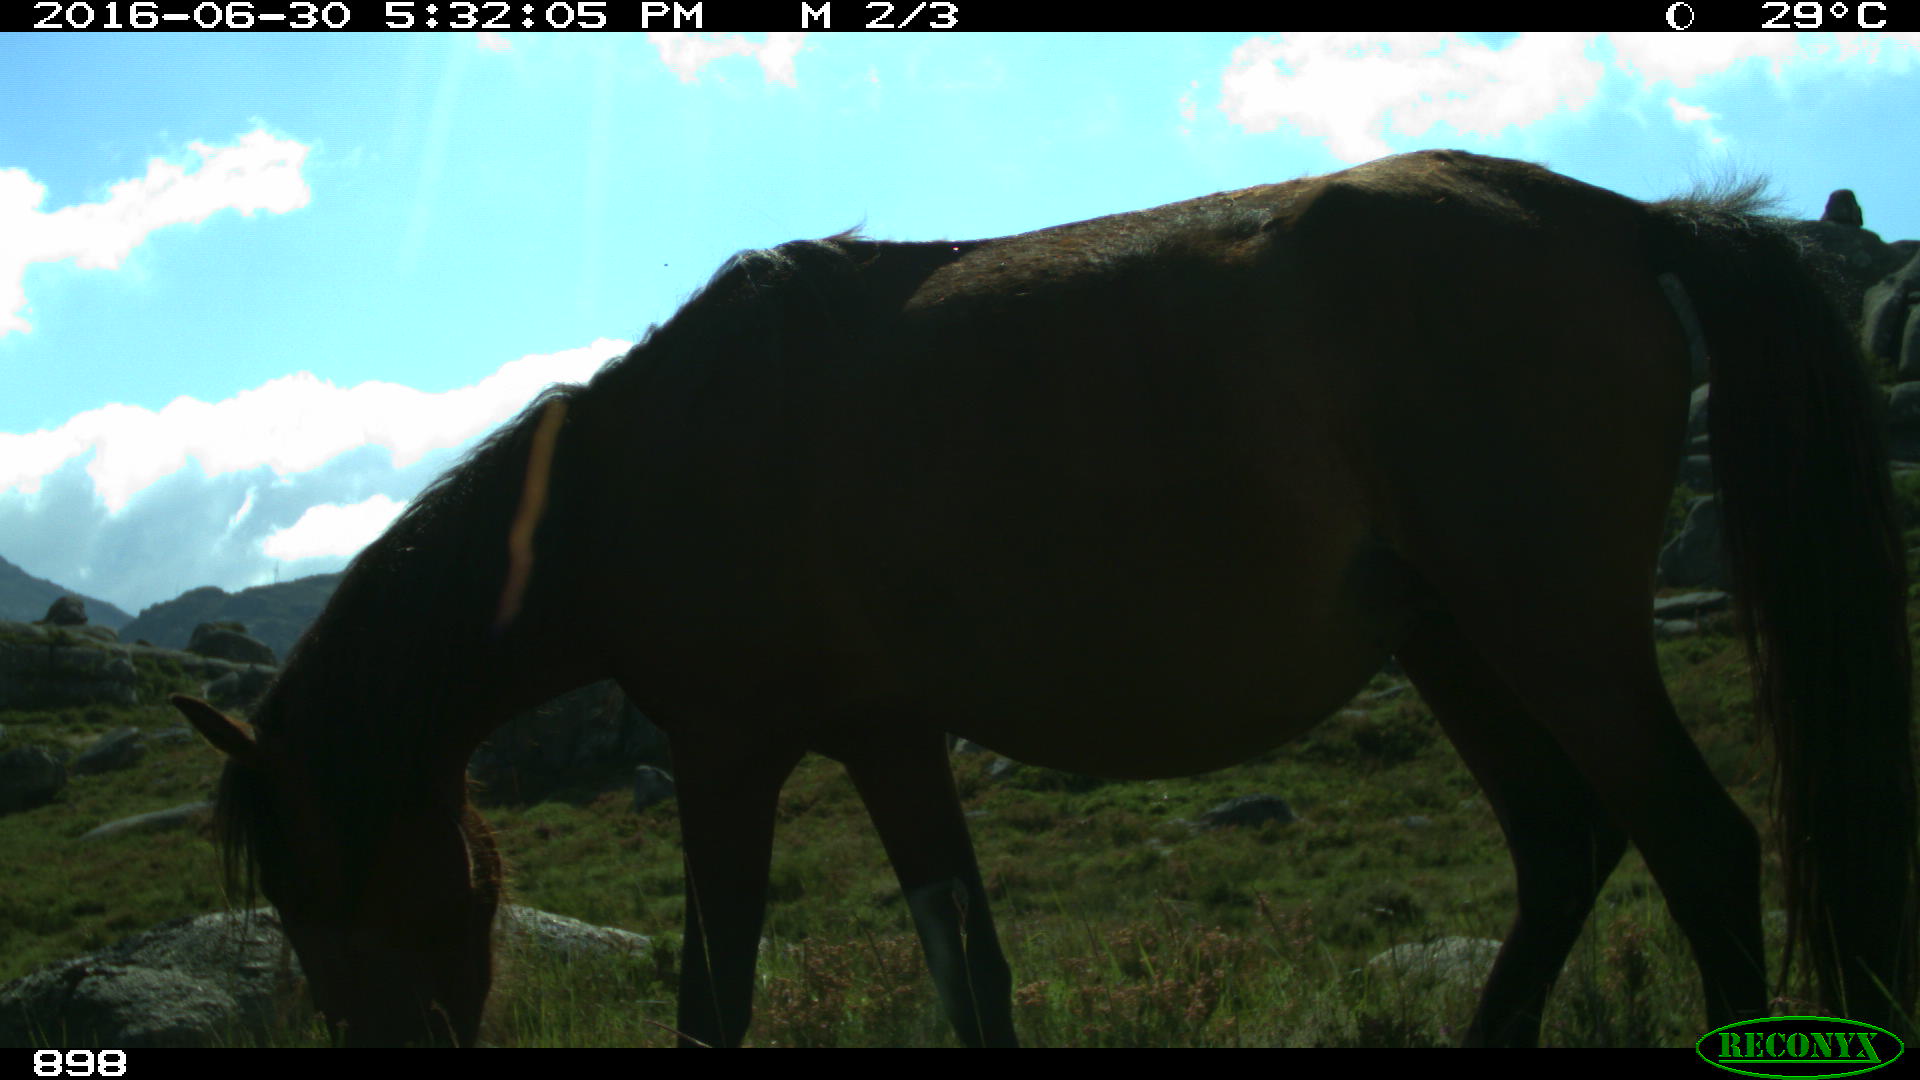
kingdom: Animalia
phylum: Chordata
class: Mammalia
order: Perissodactyla
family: Equidae
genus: Equus
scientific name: Equus caballus
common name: Horse
